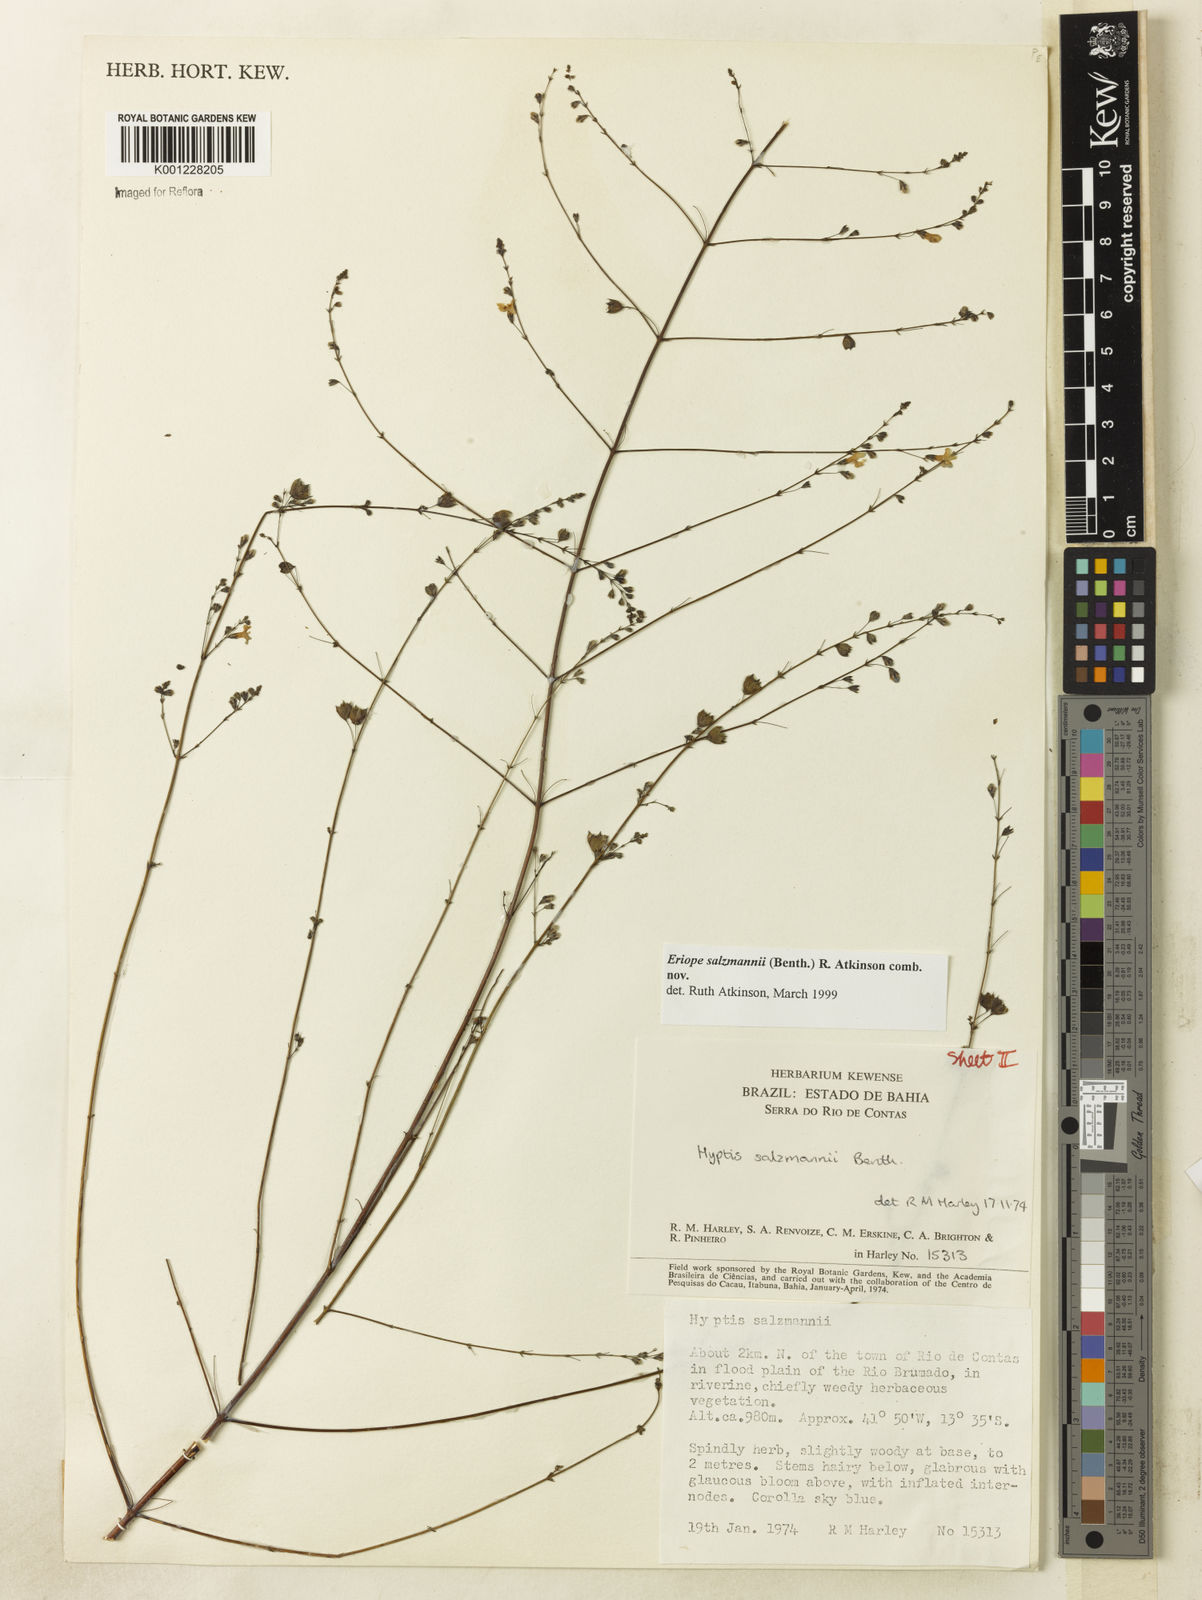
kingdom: Plantae
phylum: Tracheophyta
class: Magnoliopsida
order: Lamiales
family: Lamiaceae
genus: Hypenia
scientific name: Hypenia salzmannii
